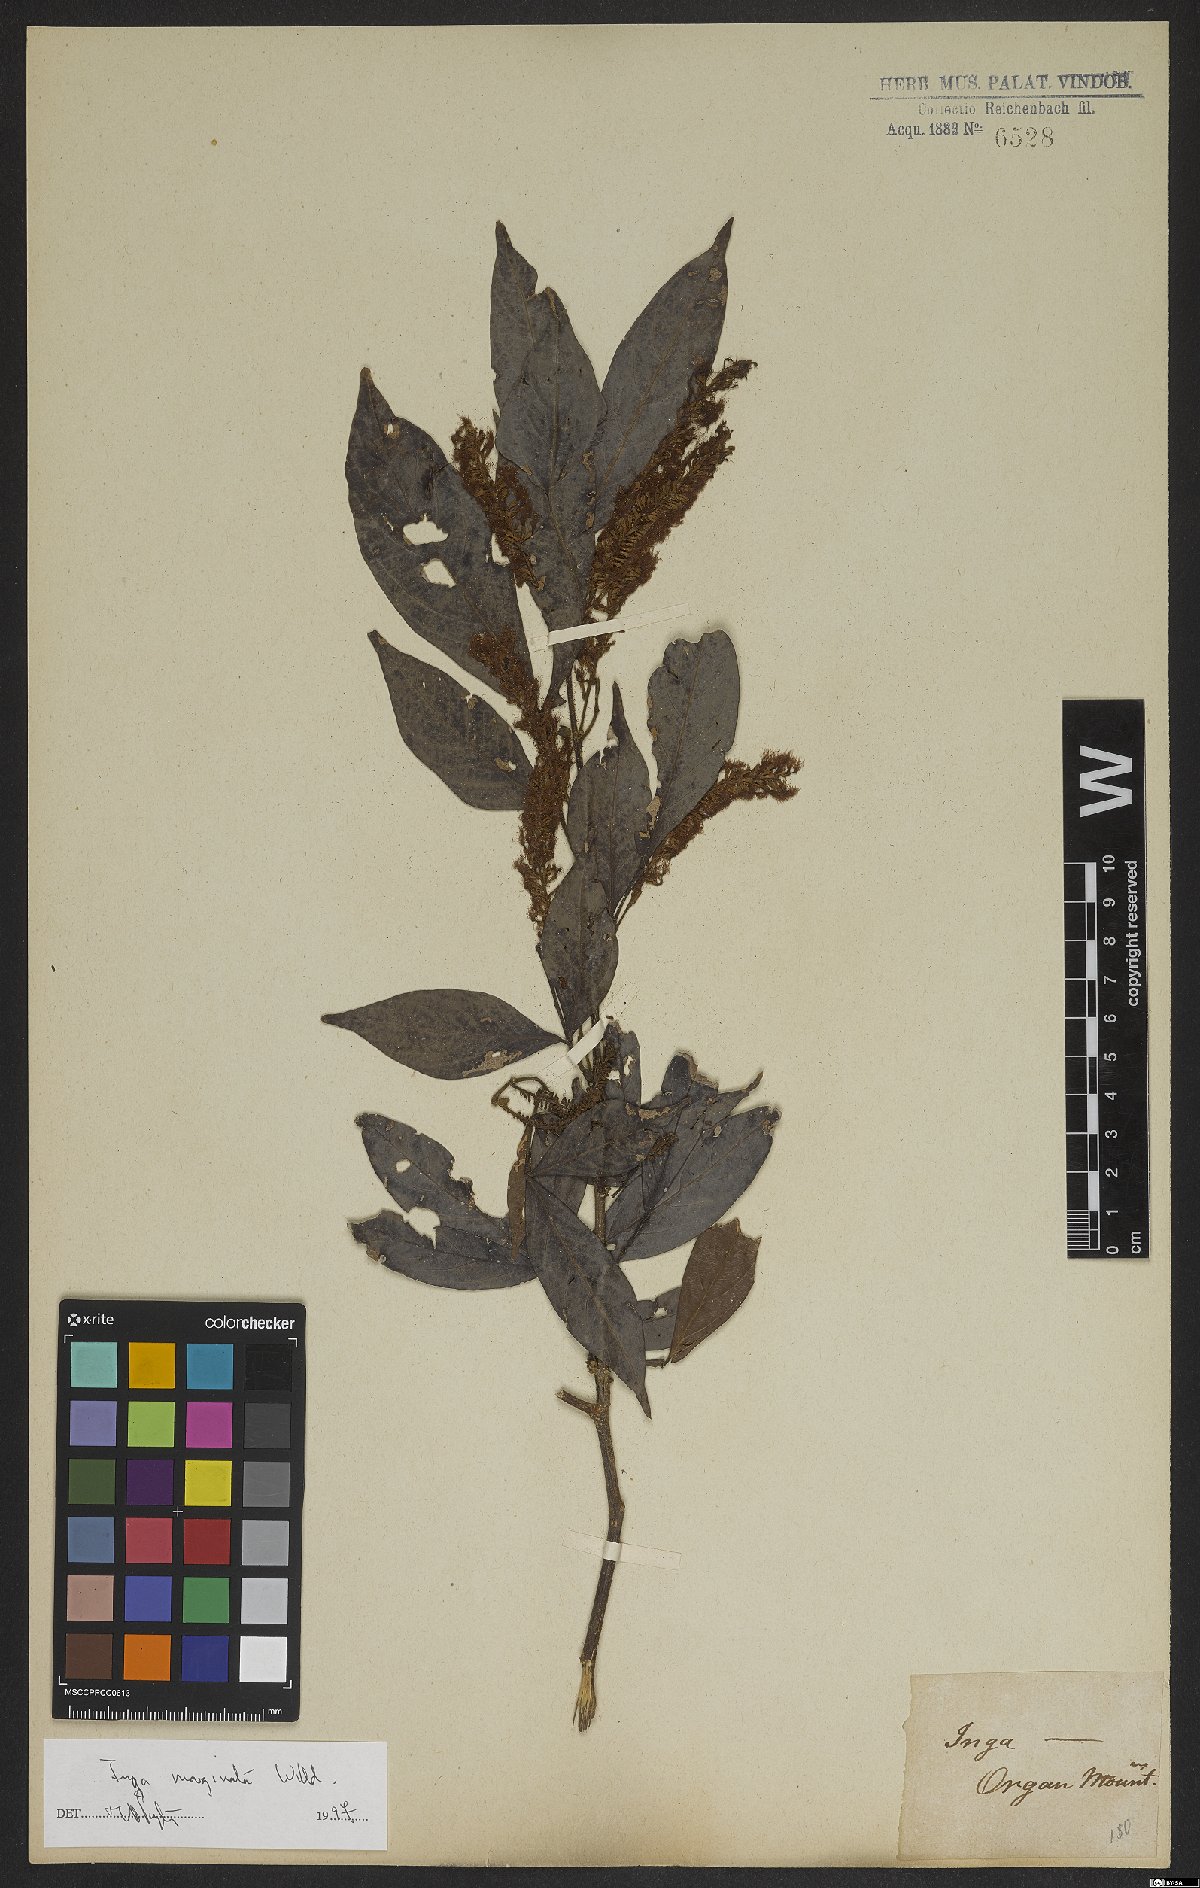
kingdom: Plantae
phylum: Tracheophyta
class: Magnoliopsida
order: Fabales
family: Fabaceae
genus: Inga
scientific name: Inga marginata
